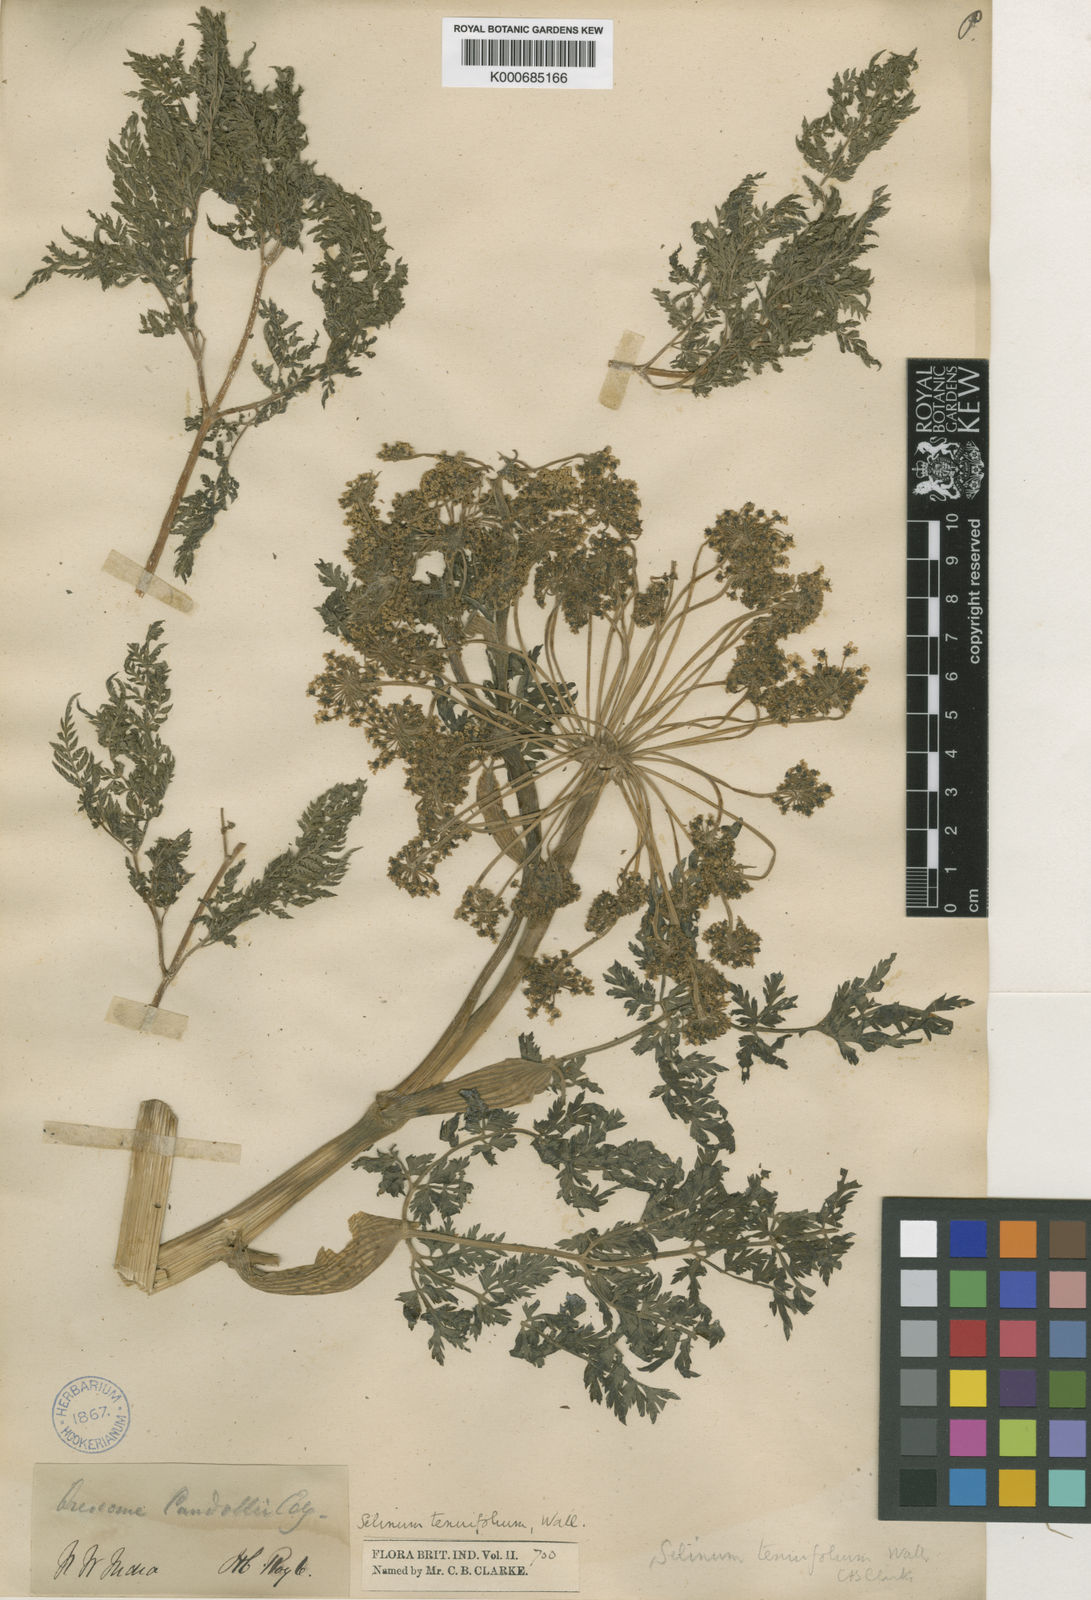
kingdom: Plantae
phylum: Tracheophyta
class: Magnoliopsida
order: Apiales
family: Apiaceae
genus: Selinum
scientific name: Selinum
